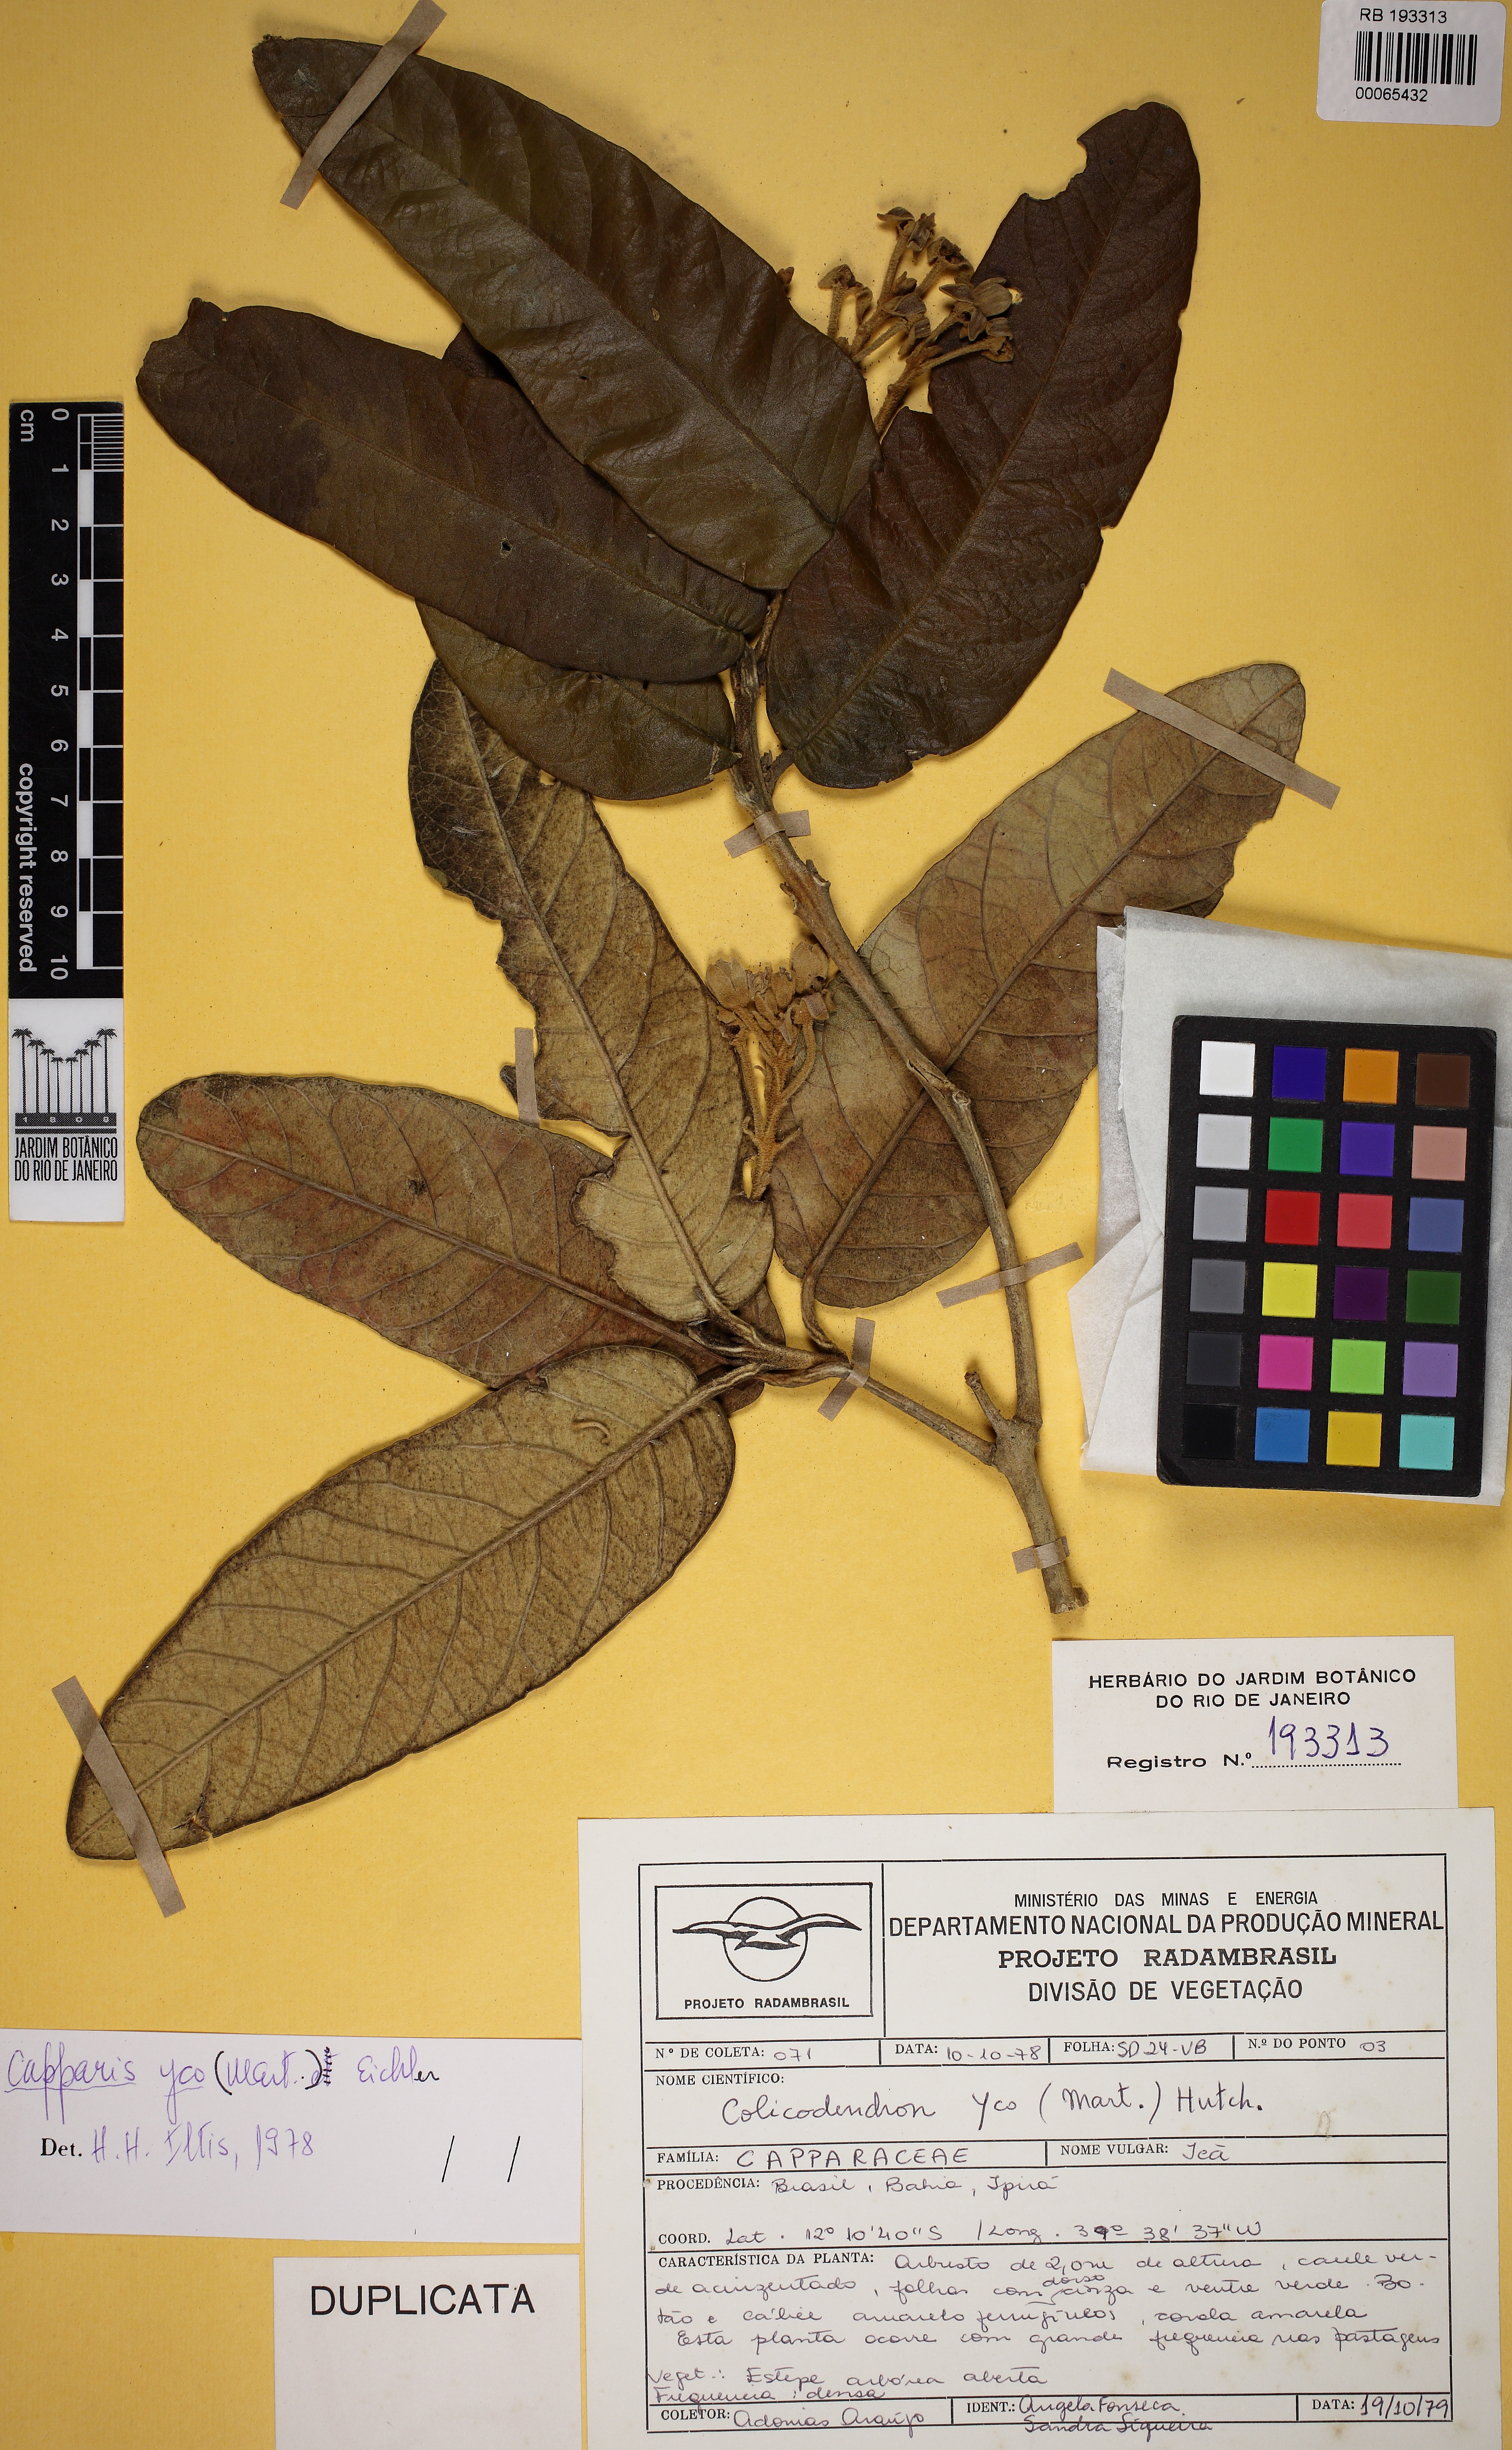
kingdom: Plantae
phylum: Tracheophyta
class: Magnoliopsida
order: Brassicales
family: Capparaceae
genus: Colicodendron
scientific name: Colicodendron yco
